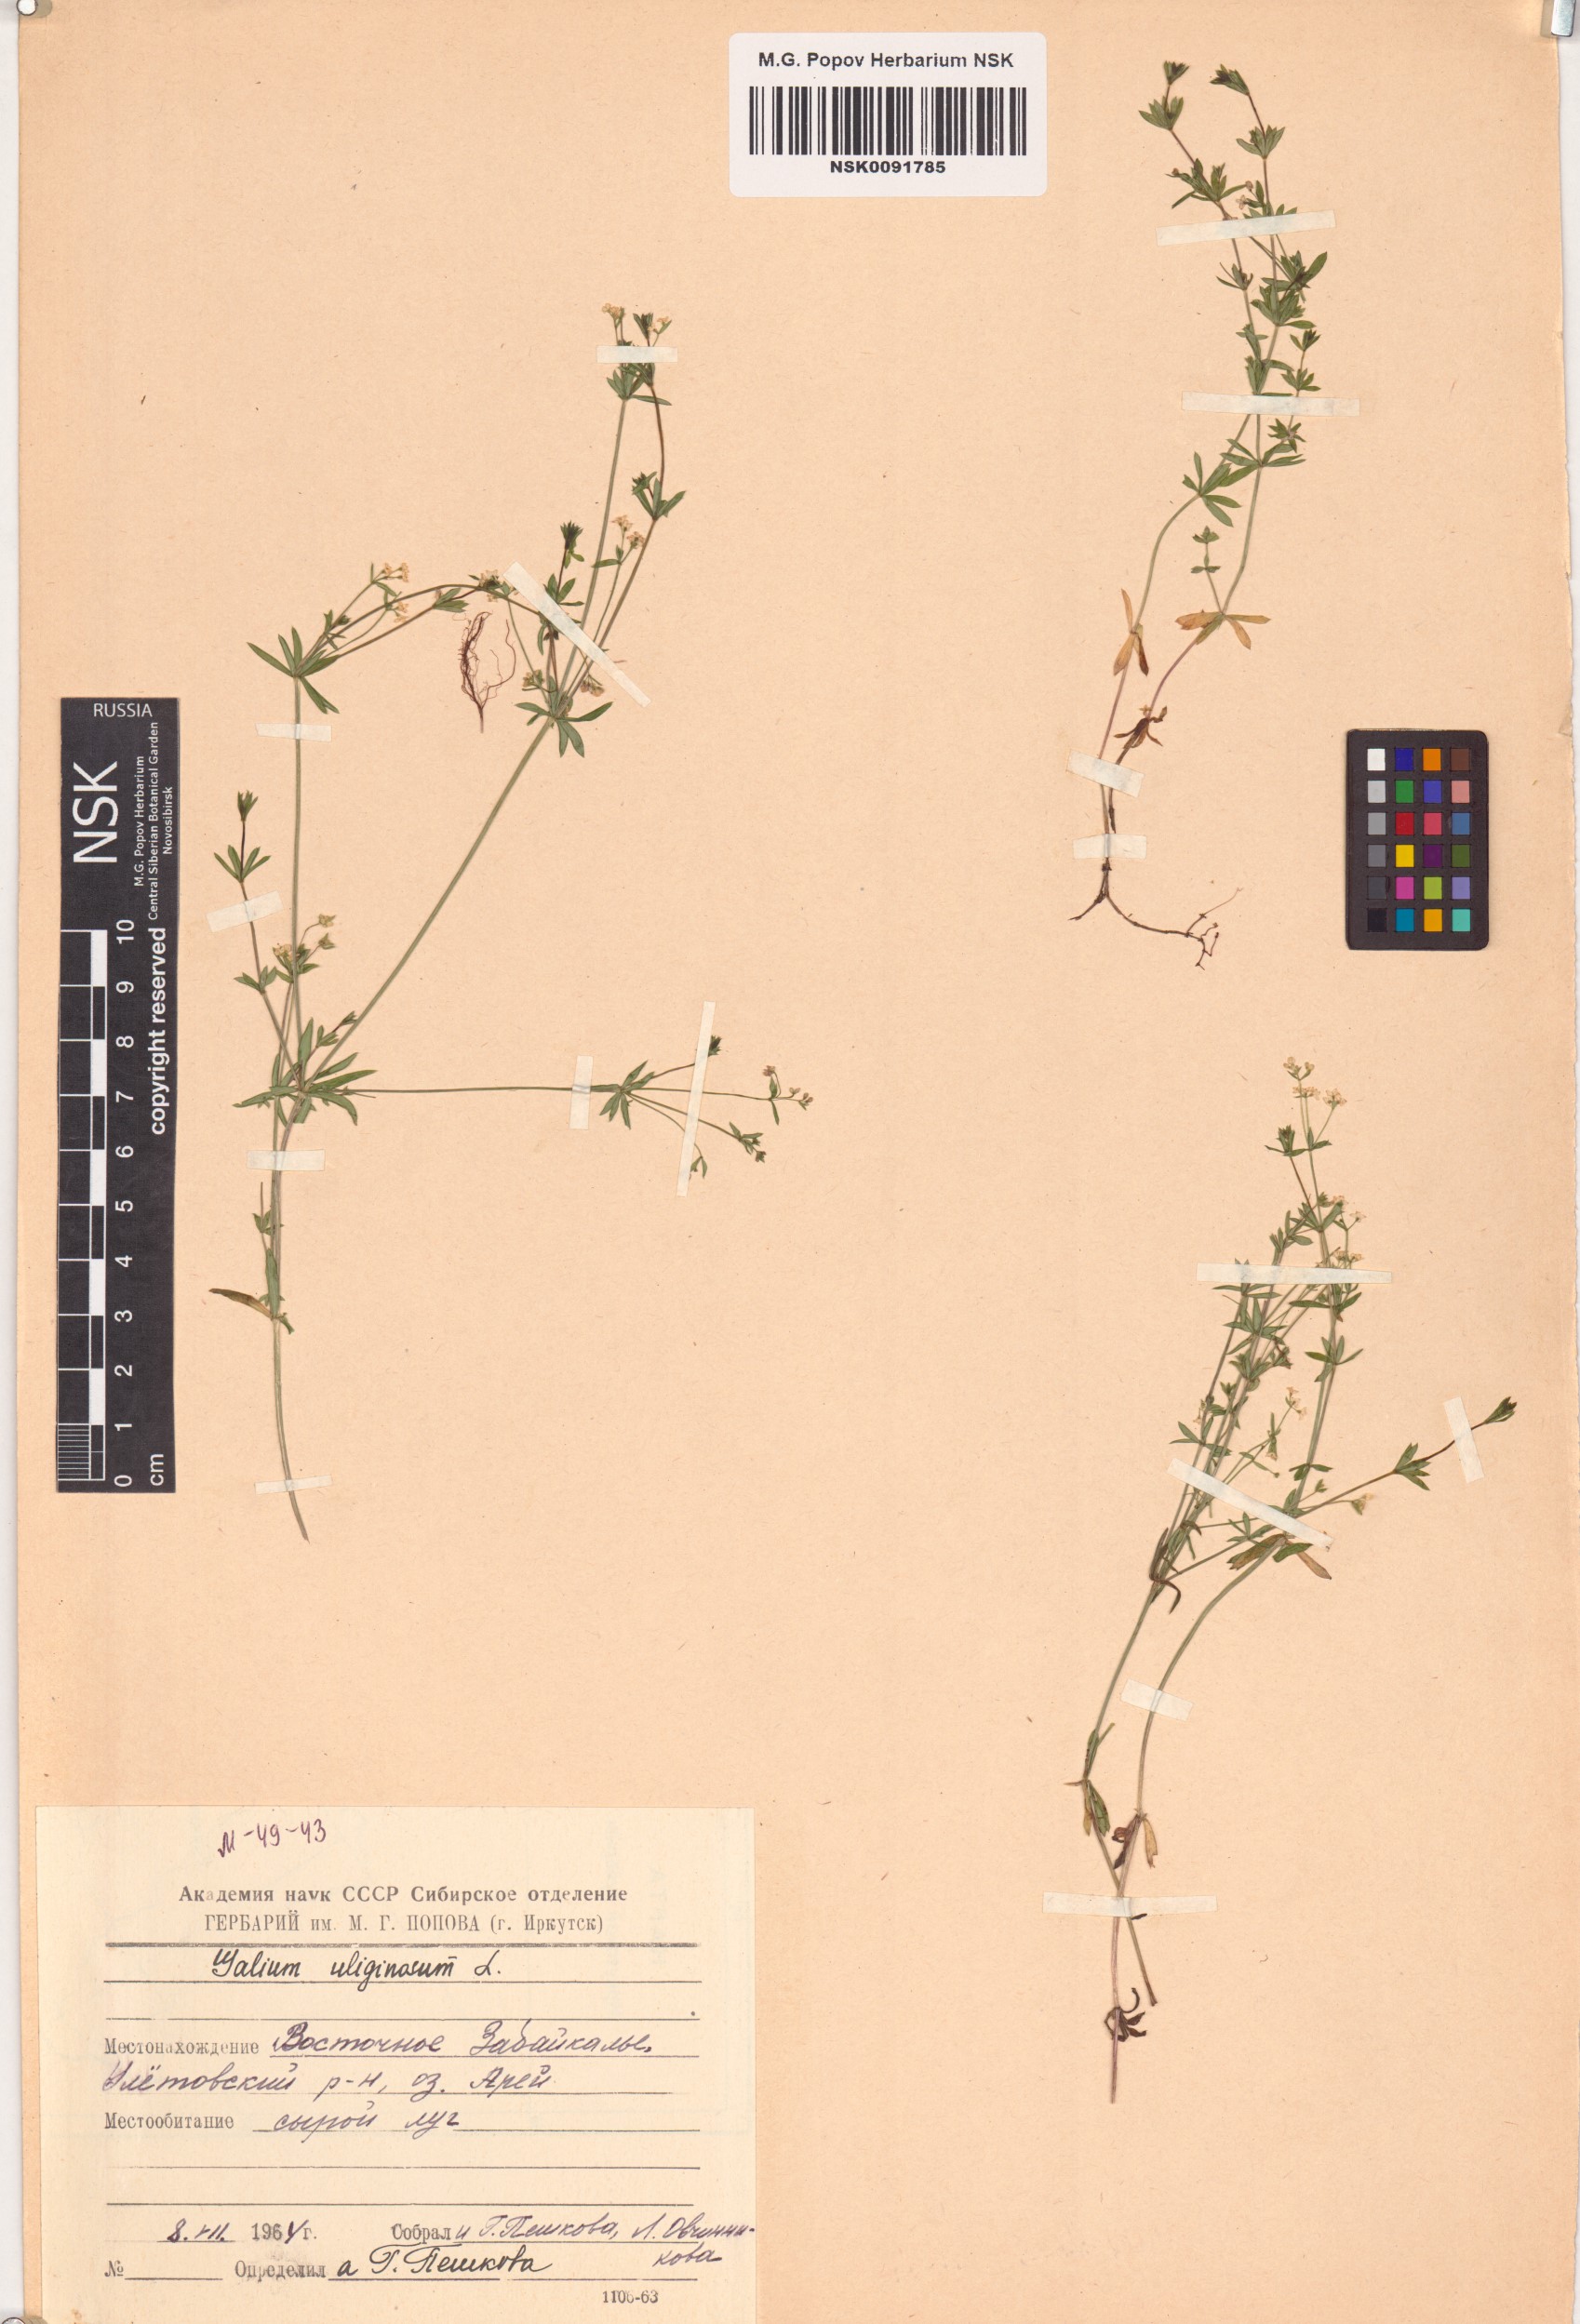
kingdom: Plantae
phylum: Tracheophyta
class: Magnoliopsida
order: Gentianales
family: Rubiaceae
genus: Galium
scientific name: Galium uliginosum
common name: Fen bedstraw
